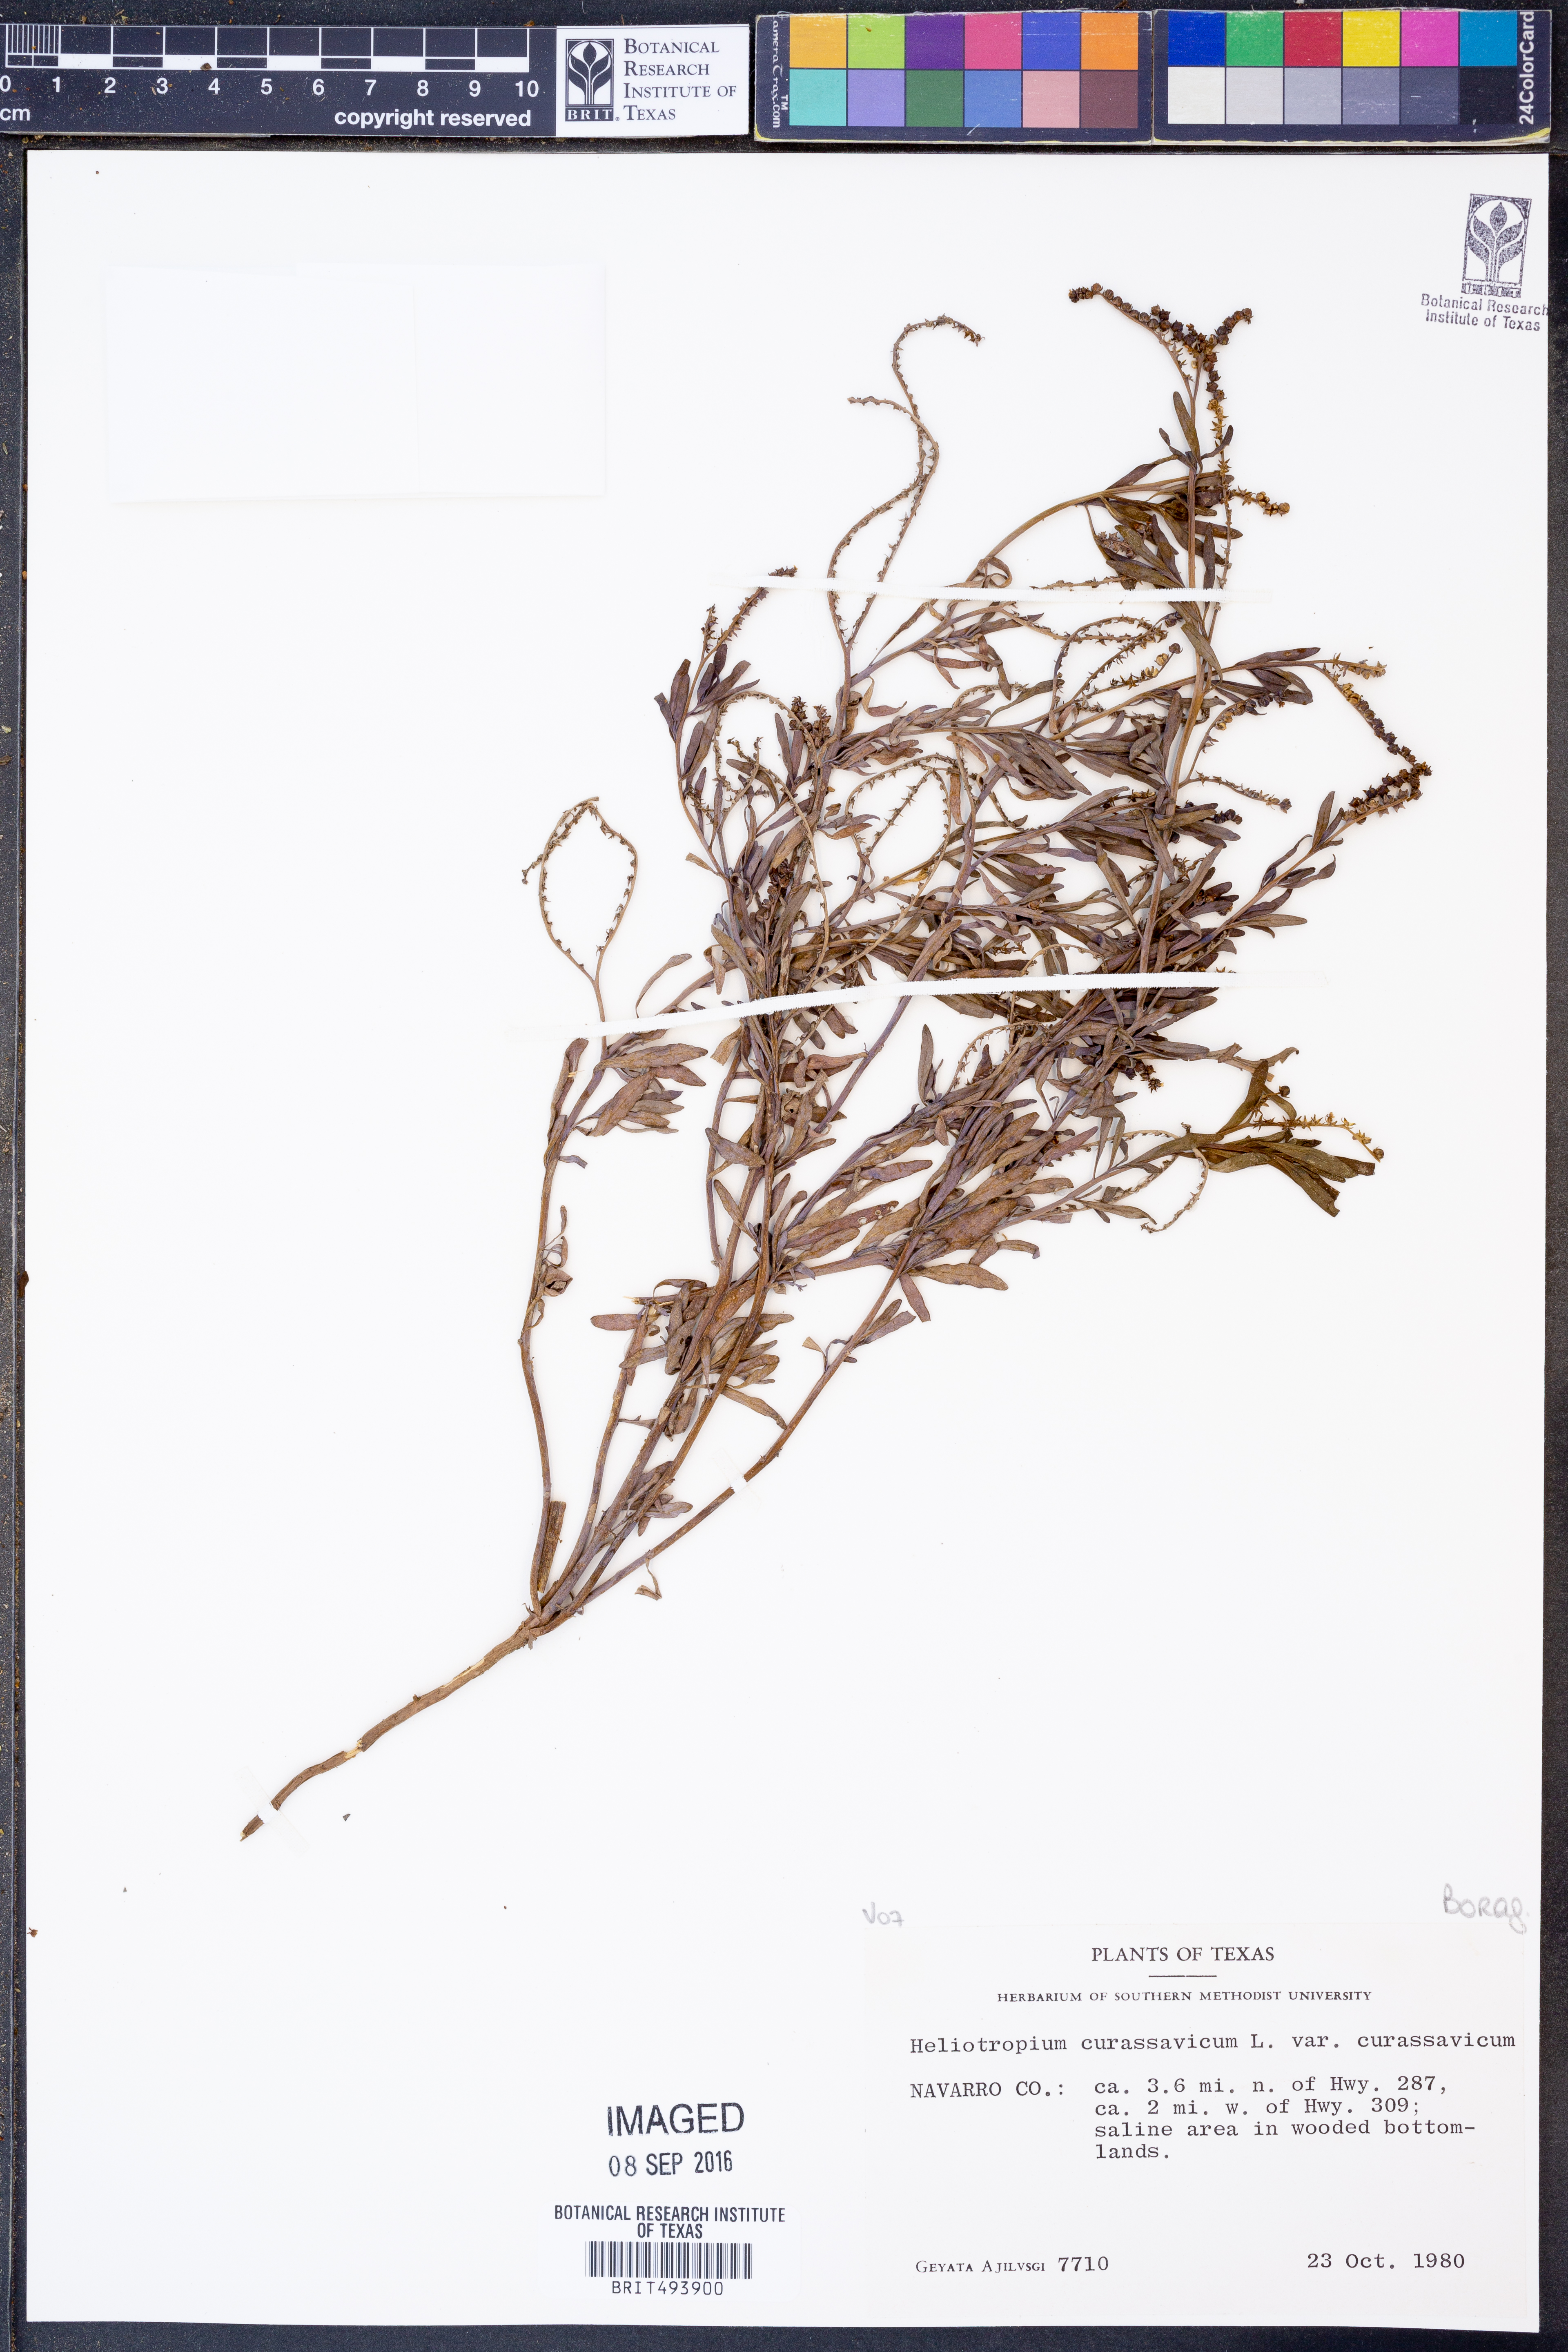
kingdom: Plantae
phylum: Tracheophyta
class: Magnoliopsida
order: Boraginales
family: Heliotropiaceae
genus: Heliotropium
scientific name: Heliotropium curassavicum
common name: Seaside heliotrope
